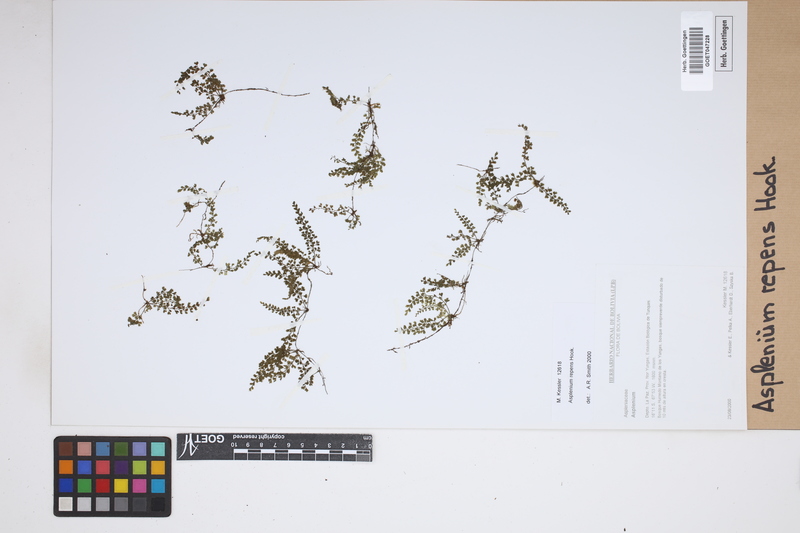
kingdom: Plantae
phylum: Tracheophyta
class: Polypodiopsida
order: Polypodiales
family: Aspleniaceae
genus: Asplenium
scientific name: Asplenium repens
